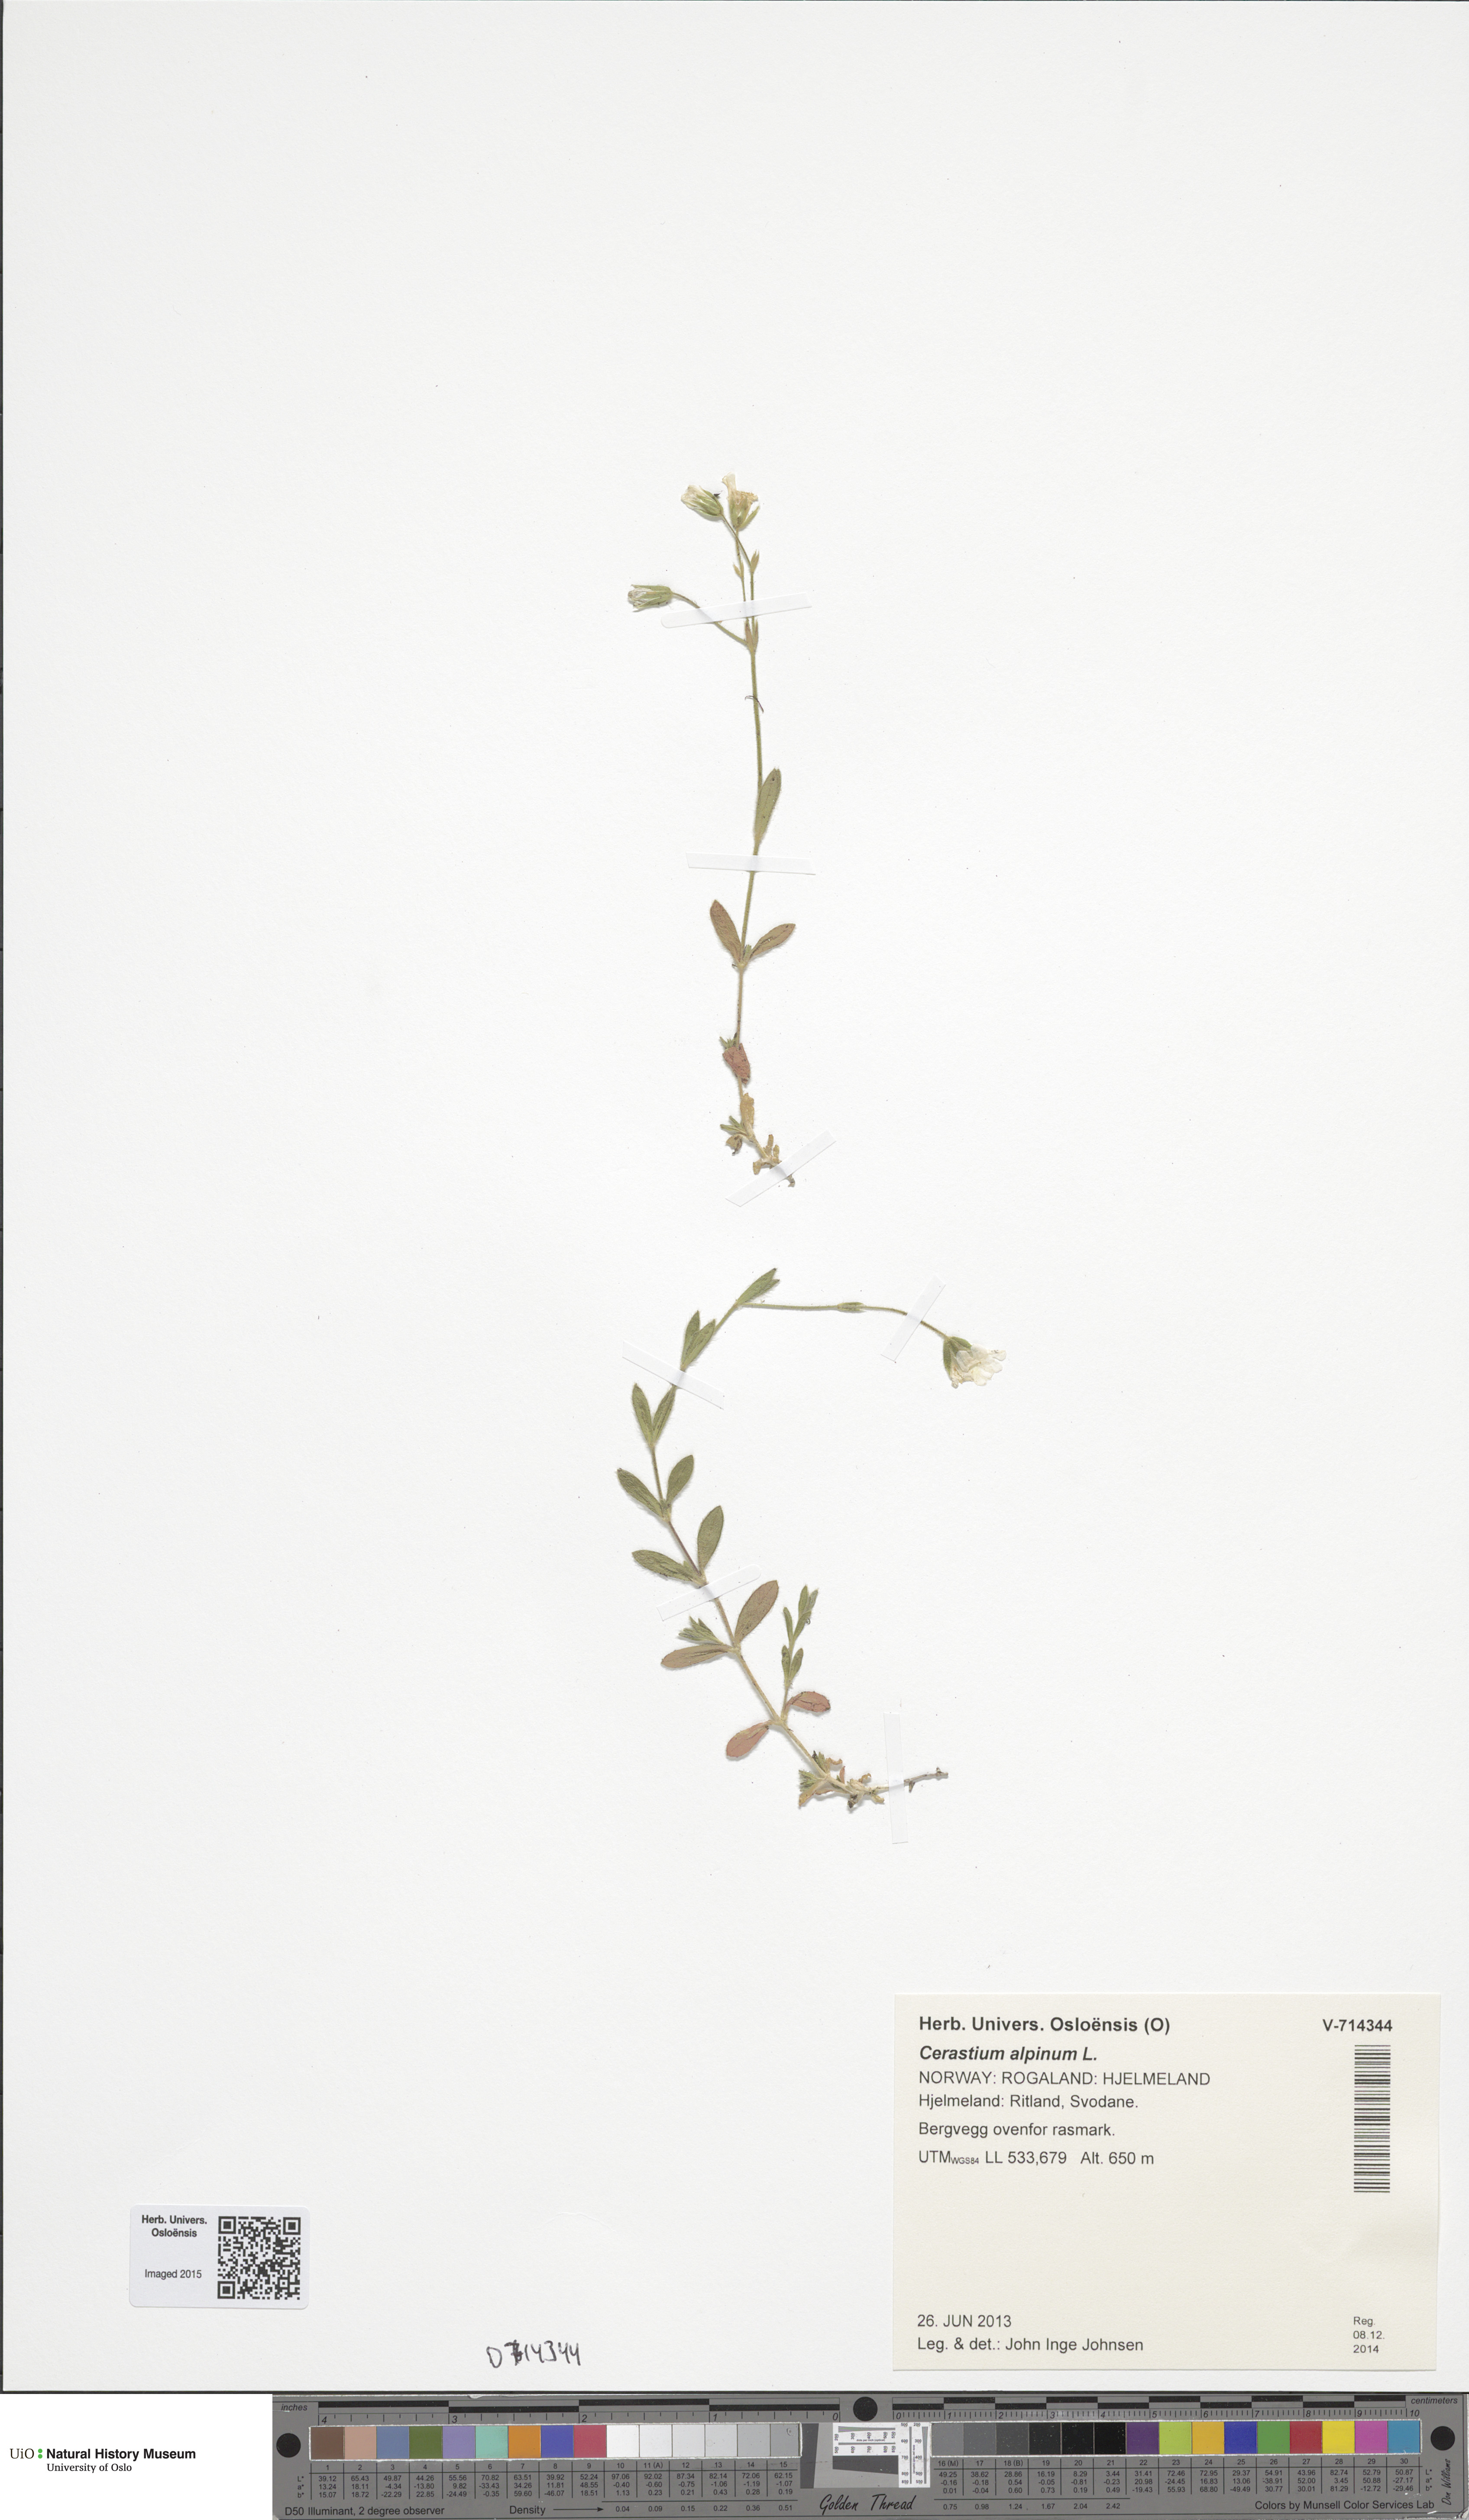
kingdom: Plantae
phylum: Tracheophyta
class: Magnoliopsida
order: Caryophyllales
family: Caryophyllaceae
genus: Cerastium
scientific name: Cerastium alpinum
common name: Alpine mouse-ear
